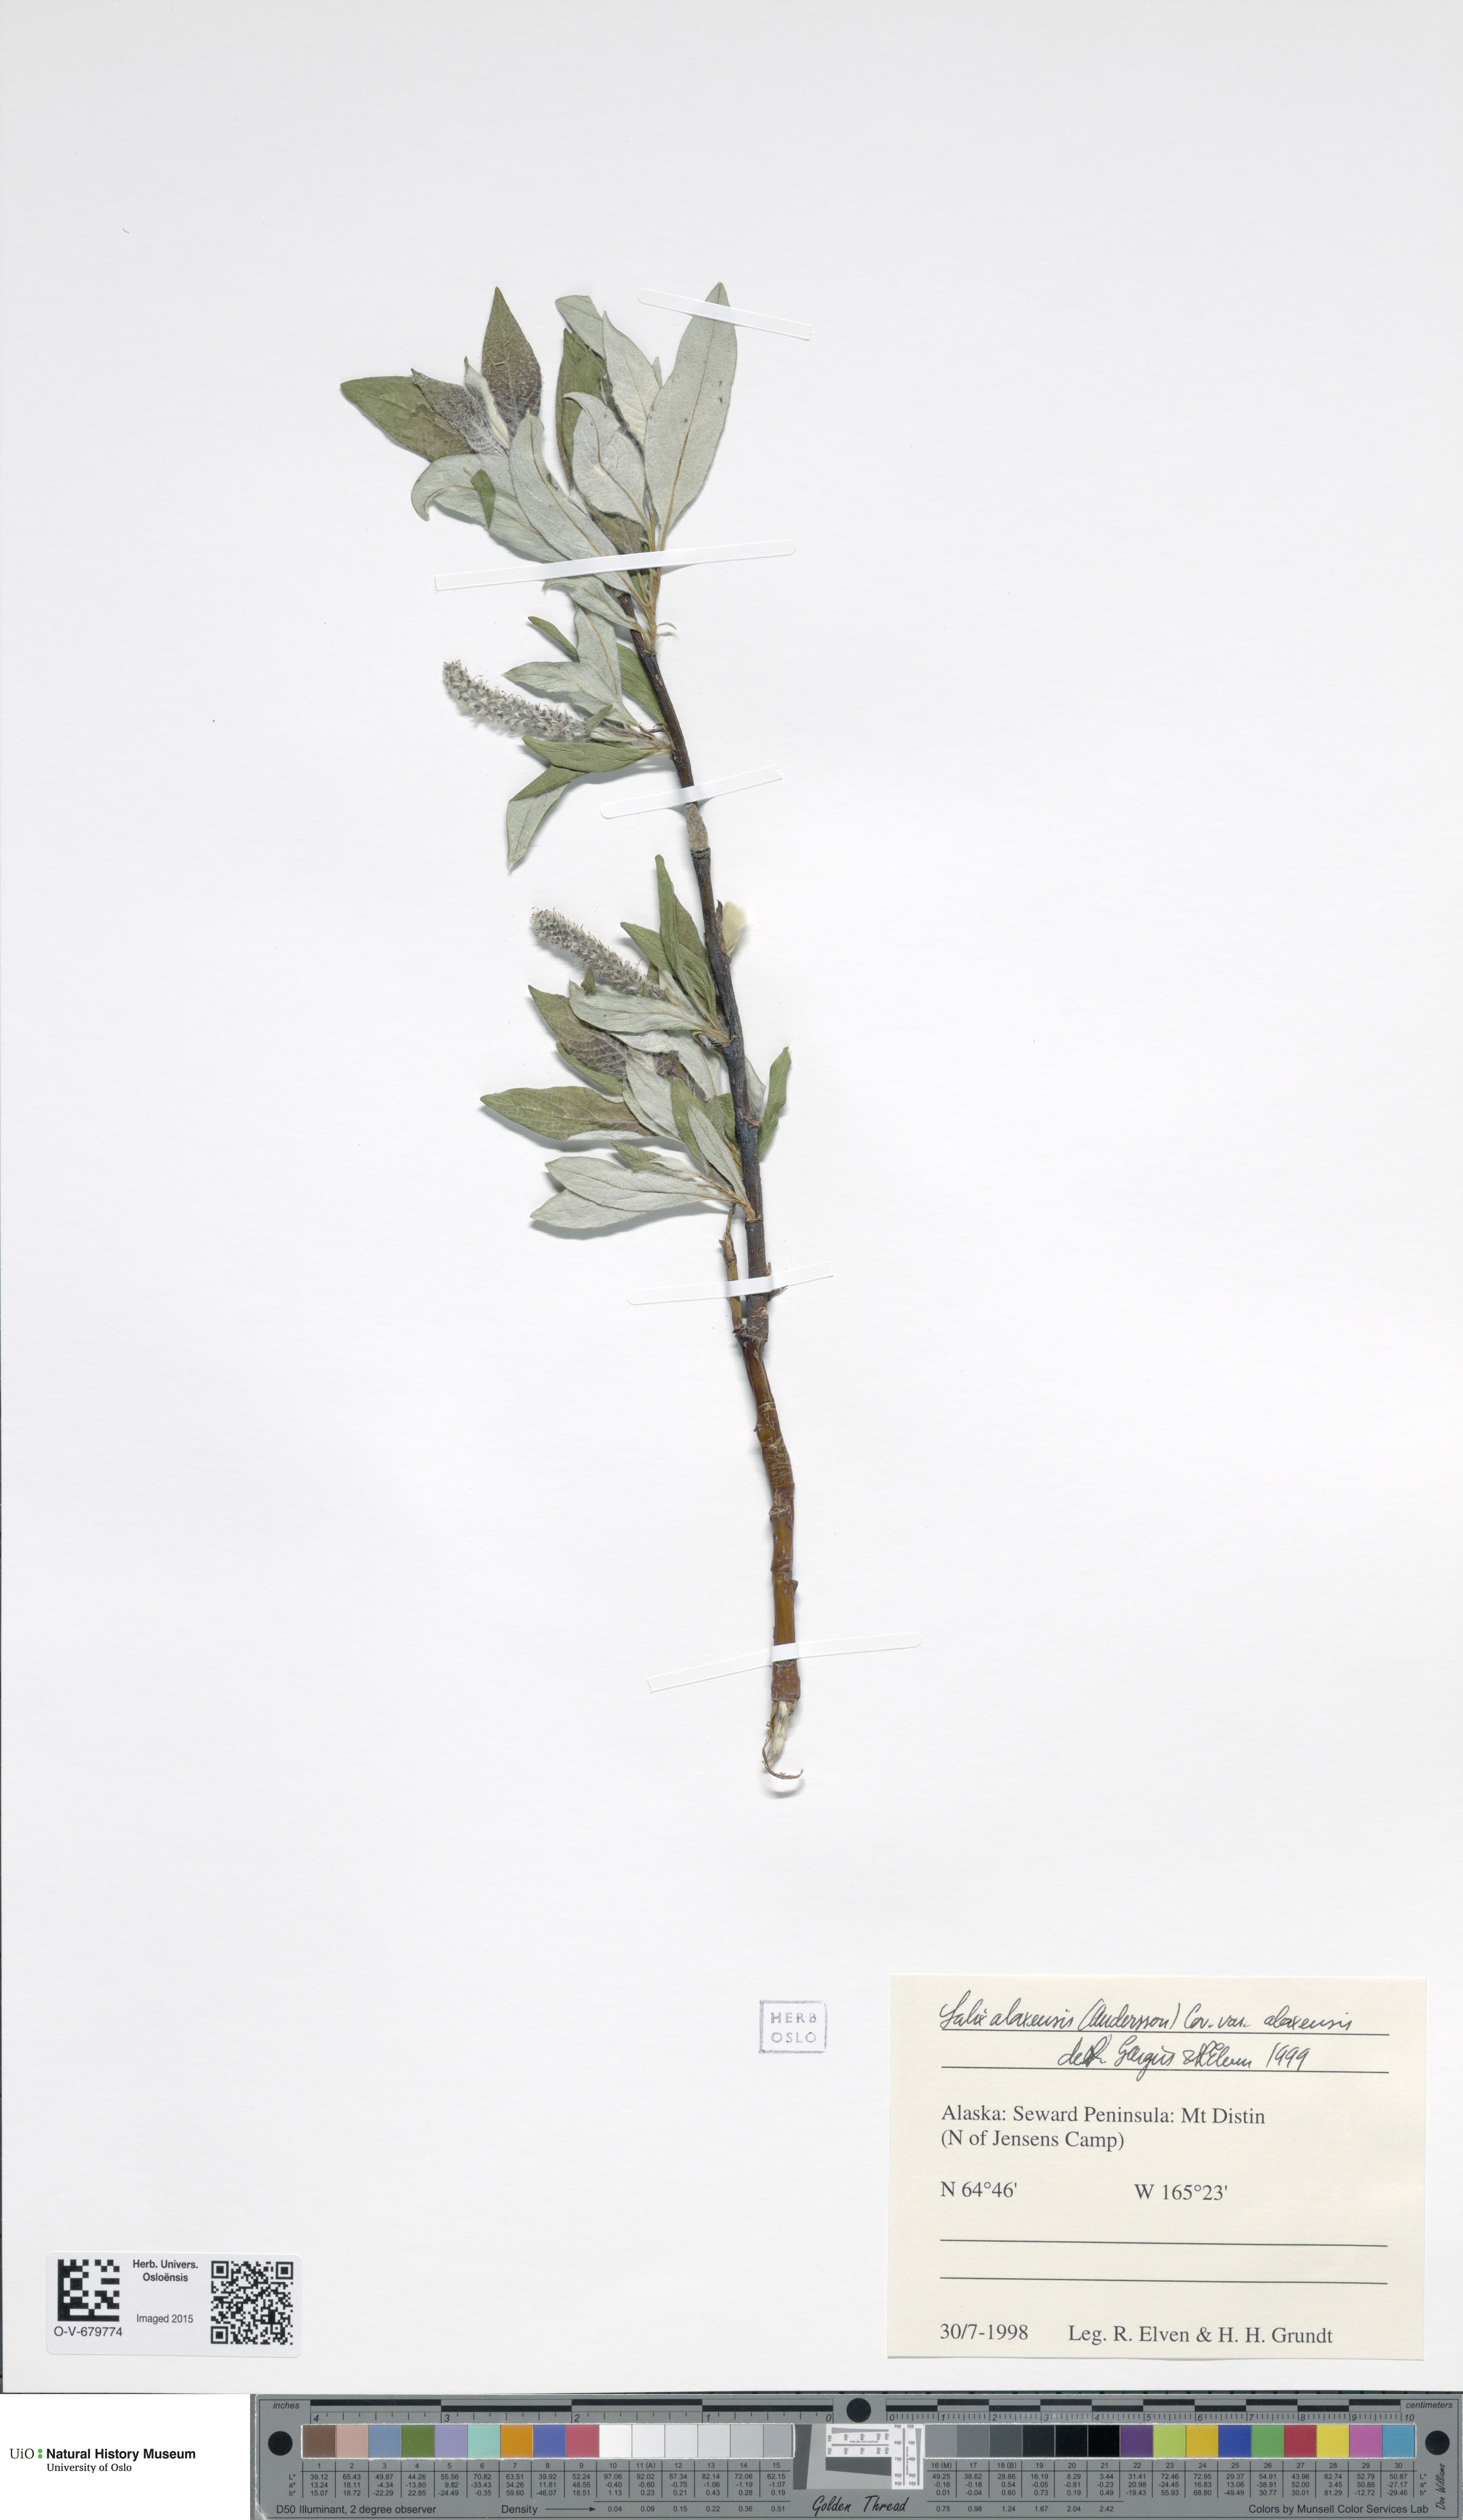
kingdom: Plantae
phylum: Tracheophyta
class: Magnoliopsida
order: Malpighiales
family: Salicaceae
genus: Salix
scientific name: Salix alaxensis
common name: Feltleaf willow
